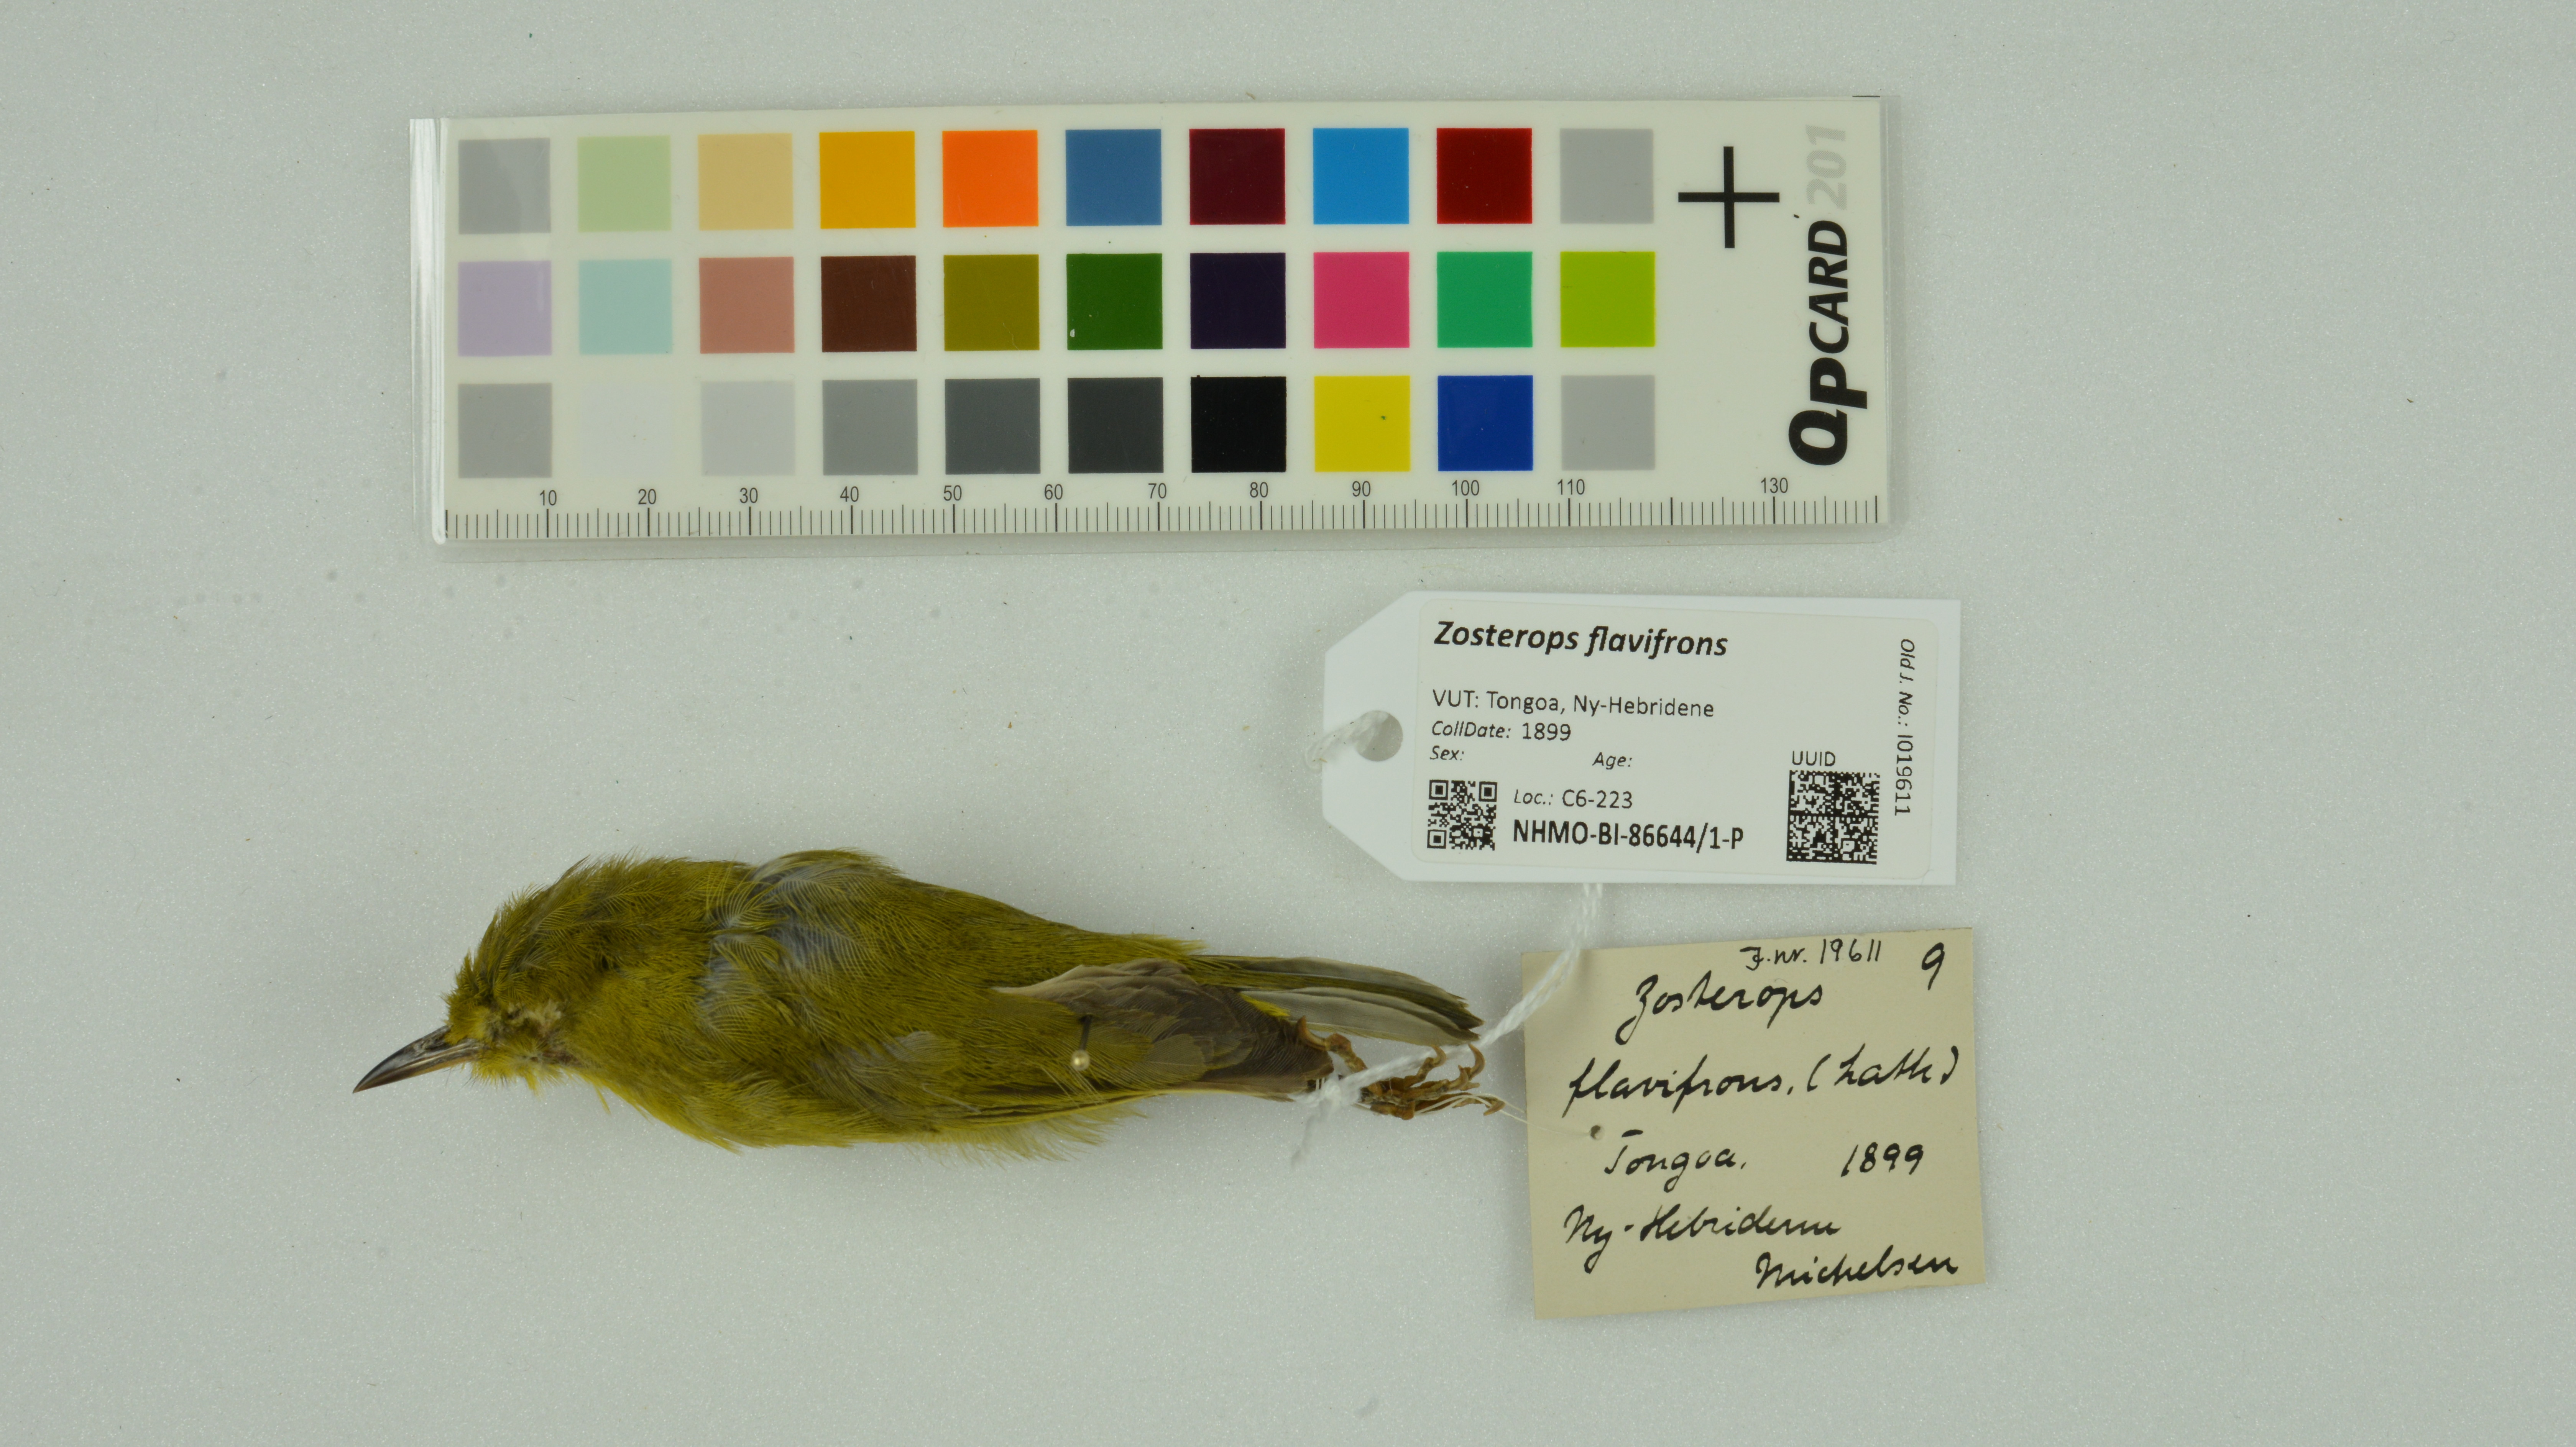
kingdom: Animalia
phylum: Chordata
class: Aves
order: Passeriformes
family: Zosteropidae
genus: Zosterops
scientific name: Zosterops flavifrons
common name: Vanuatu white-eye
